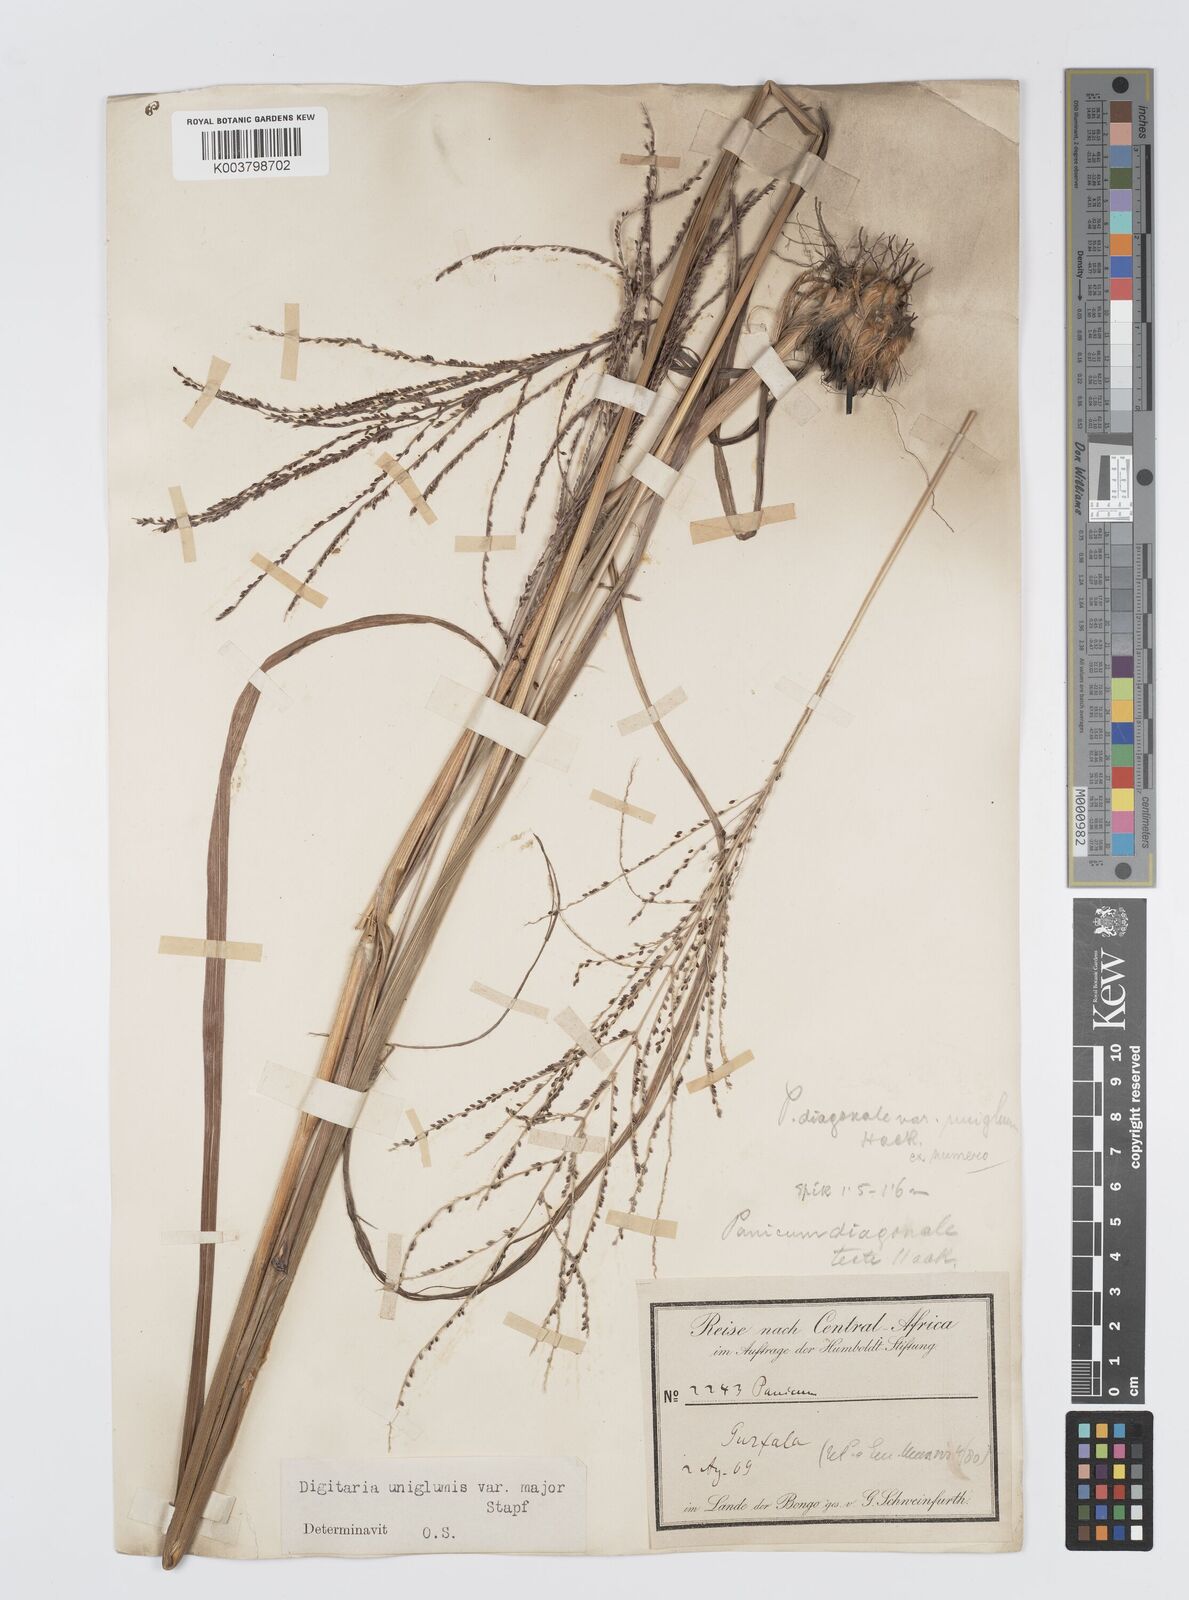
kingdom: Plantae
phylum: Tracheophyta
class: Liliopsida
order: Poales
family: Poaceae
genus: Digitaria
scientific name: Digitaria diagonalis
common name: Brown-seed finger grass
